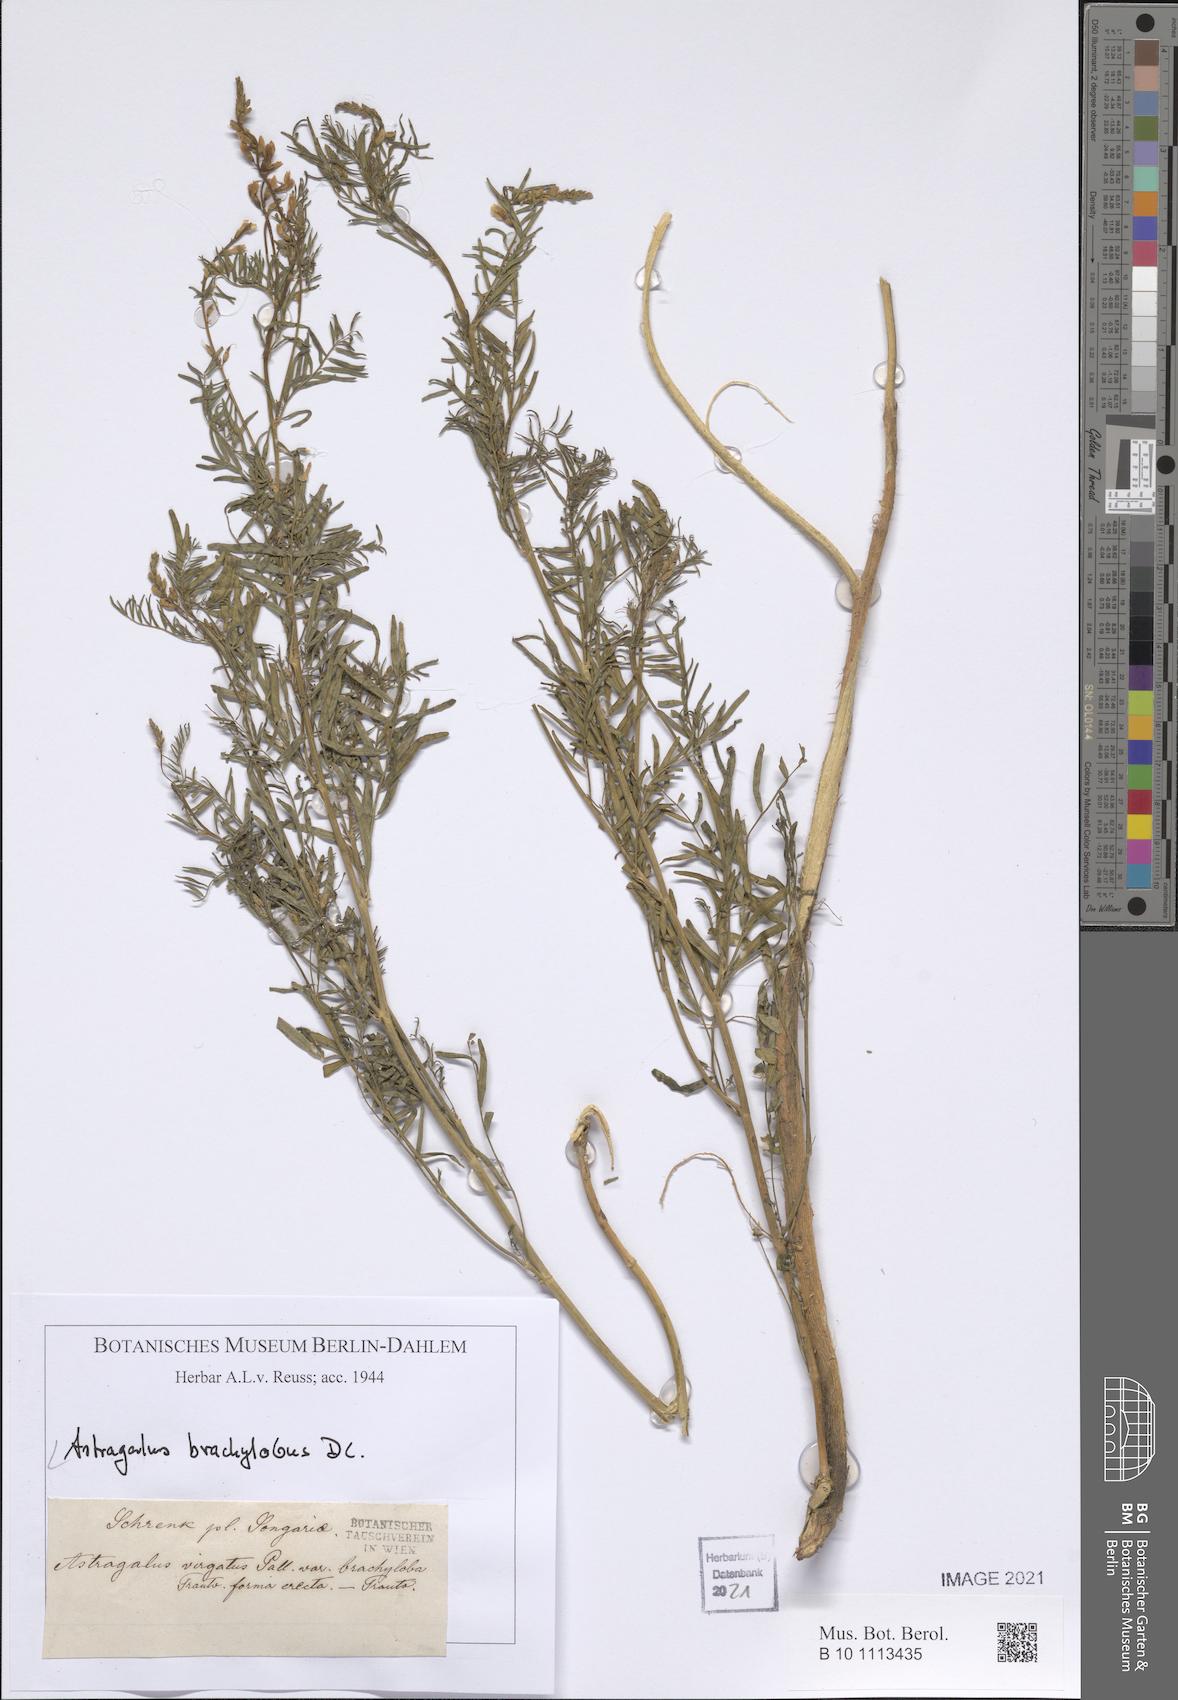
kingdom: Plantae
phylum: Tracheophyta
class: Magnoliopsida
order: Fabales
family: Fabaceae
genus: Astragalus
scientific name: Astragalus brachylobus
